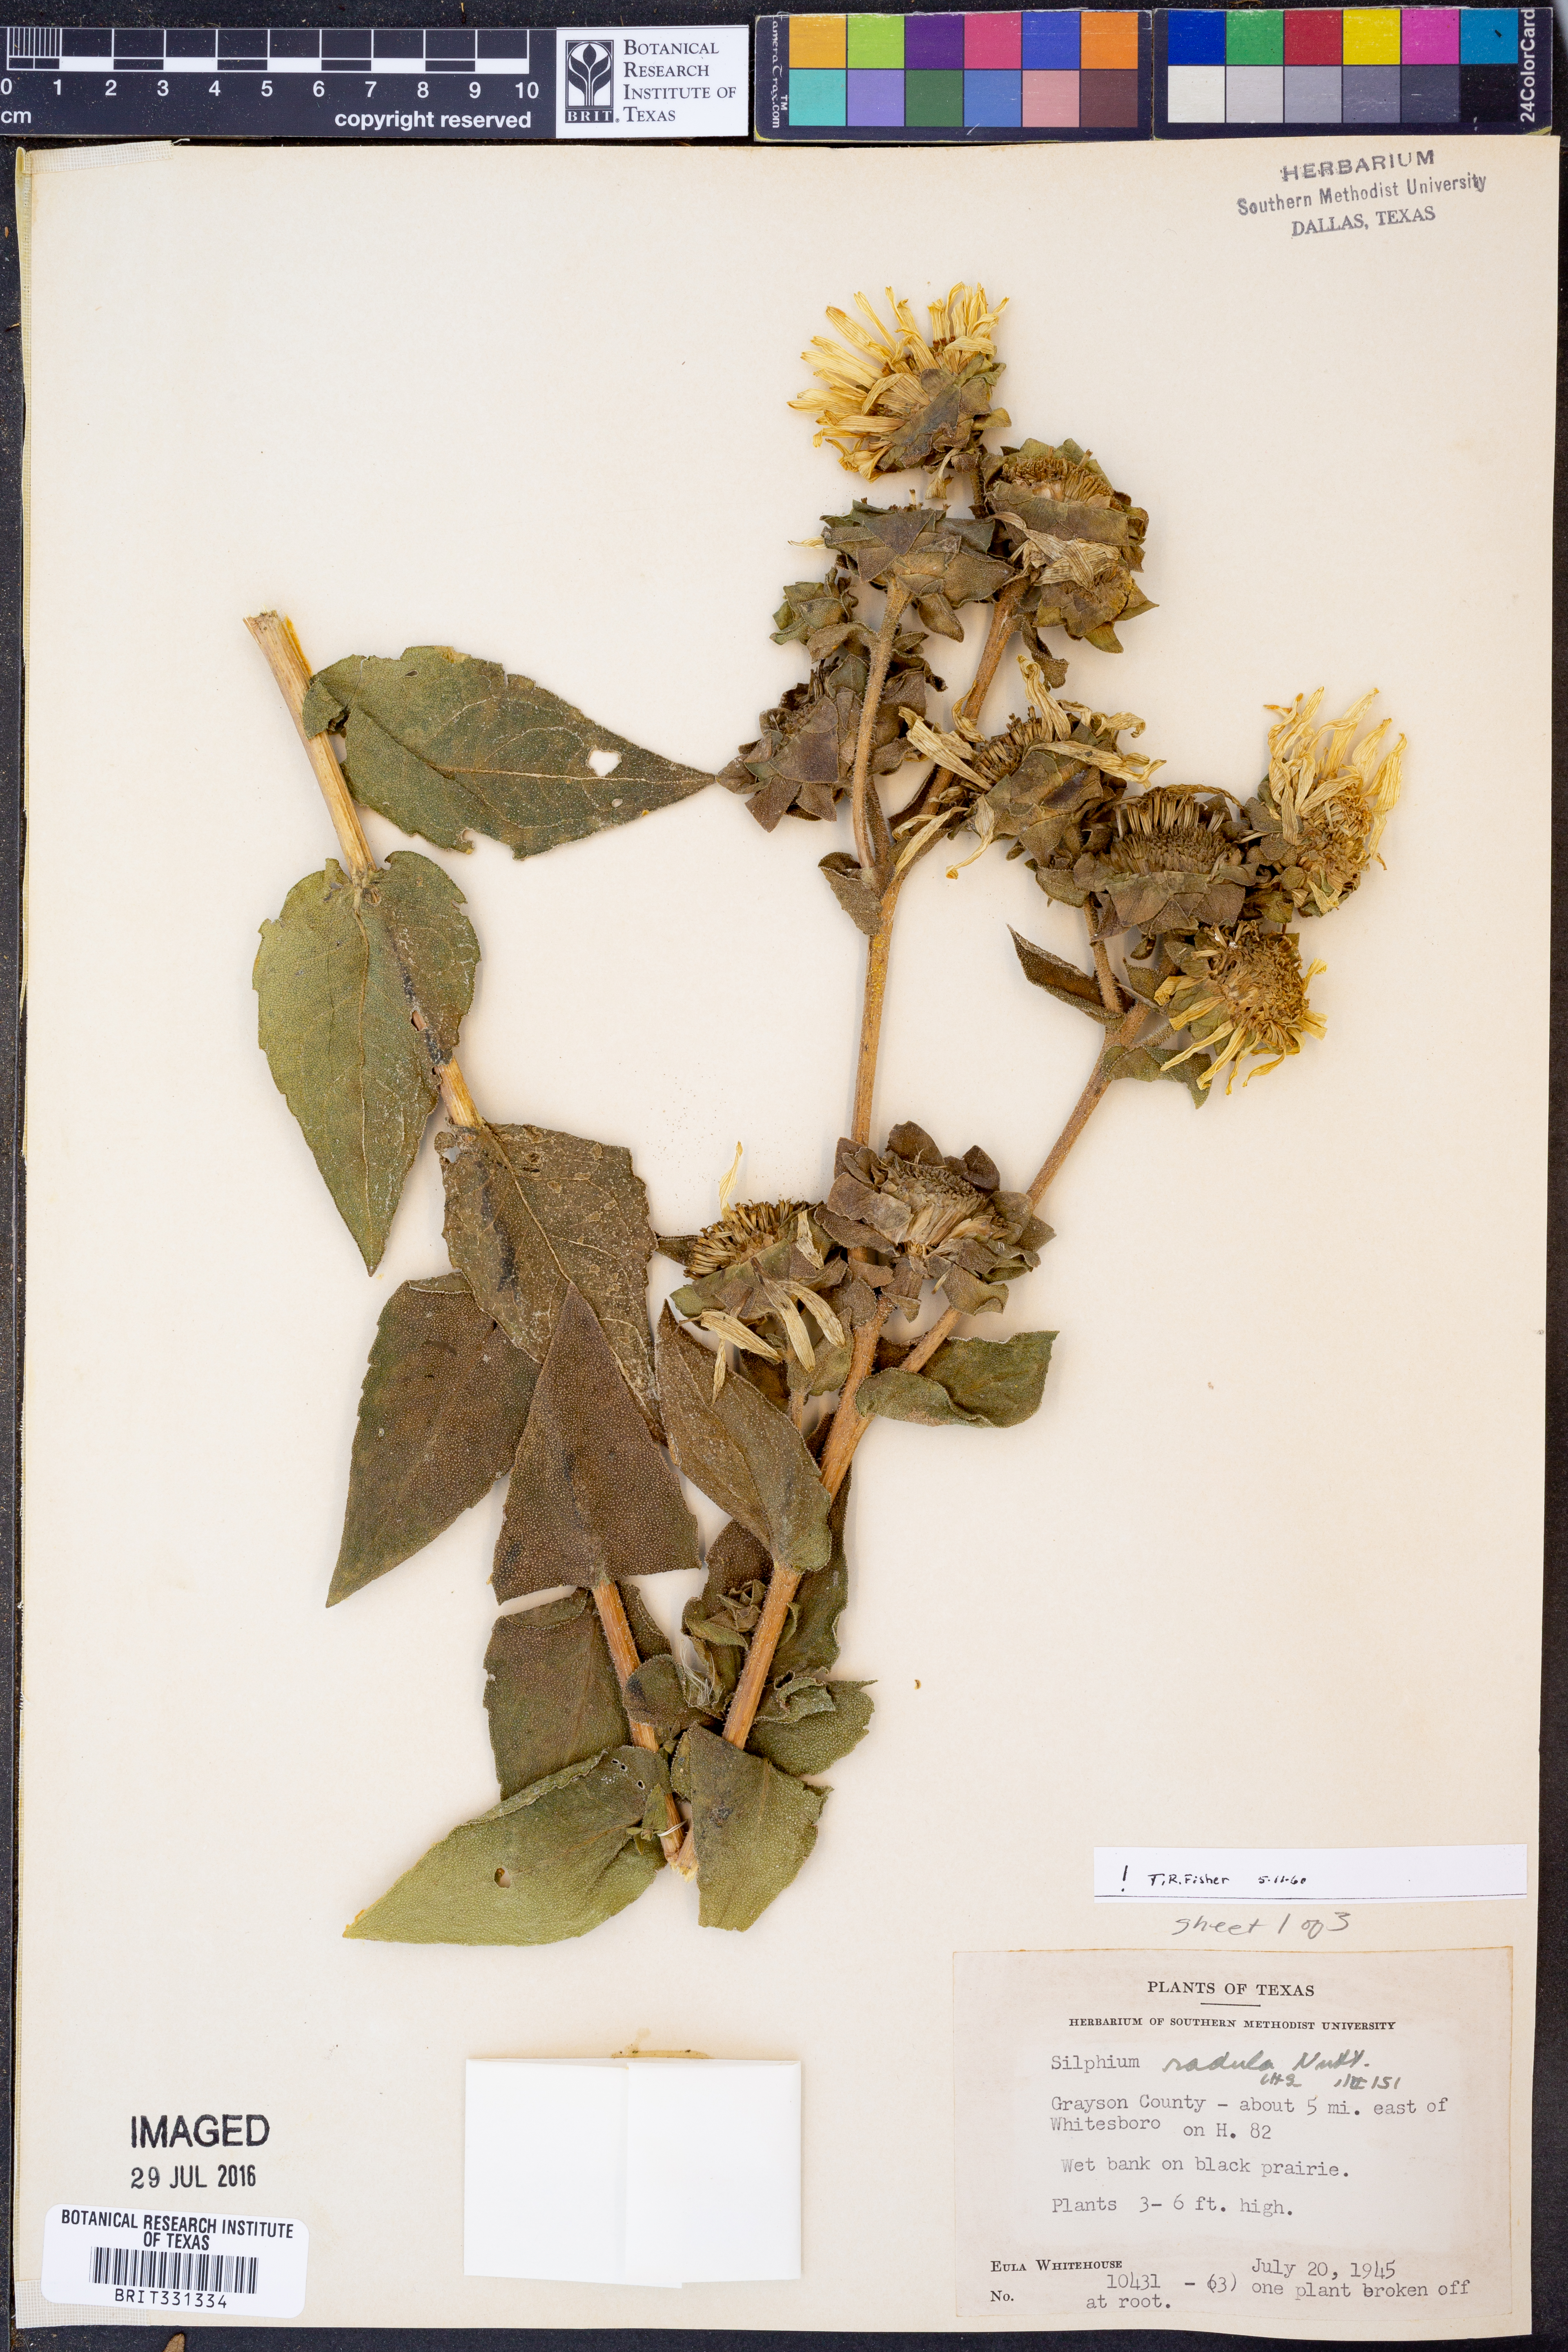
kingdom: Plantae
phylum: Tracheophyta
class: Magnoliopsida
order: Asterales
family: Asteraceae
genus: Silphium
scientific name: Silphium radula
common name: Roughleaf rosinweed
